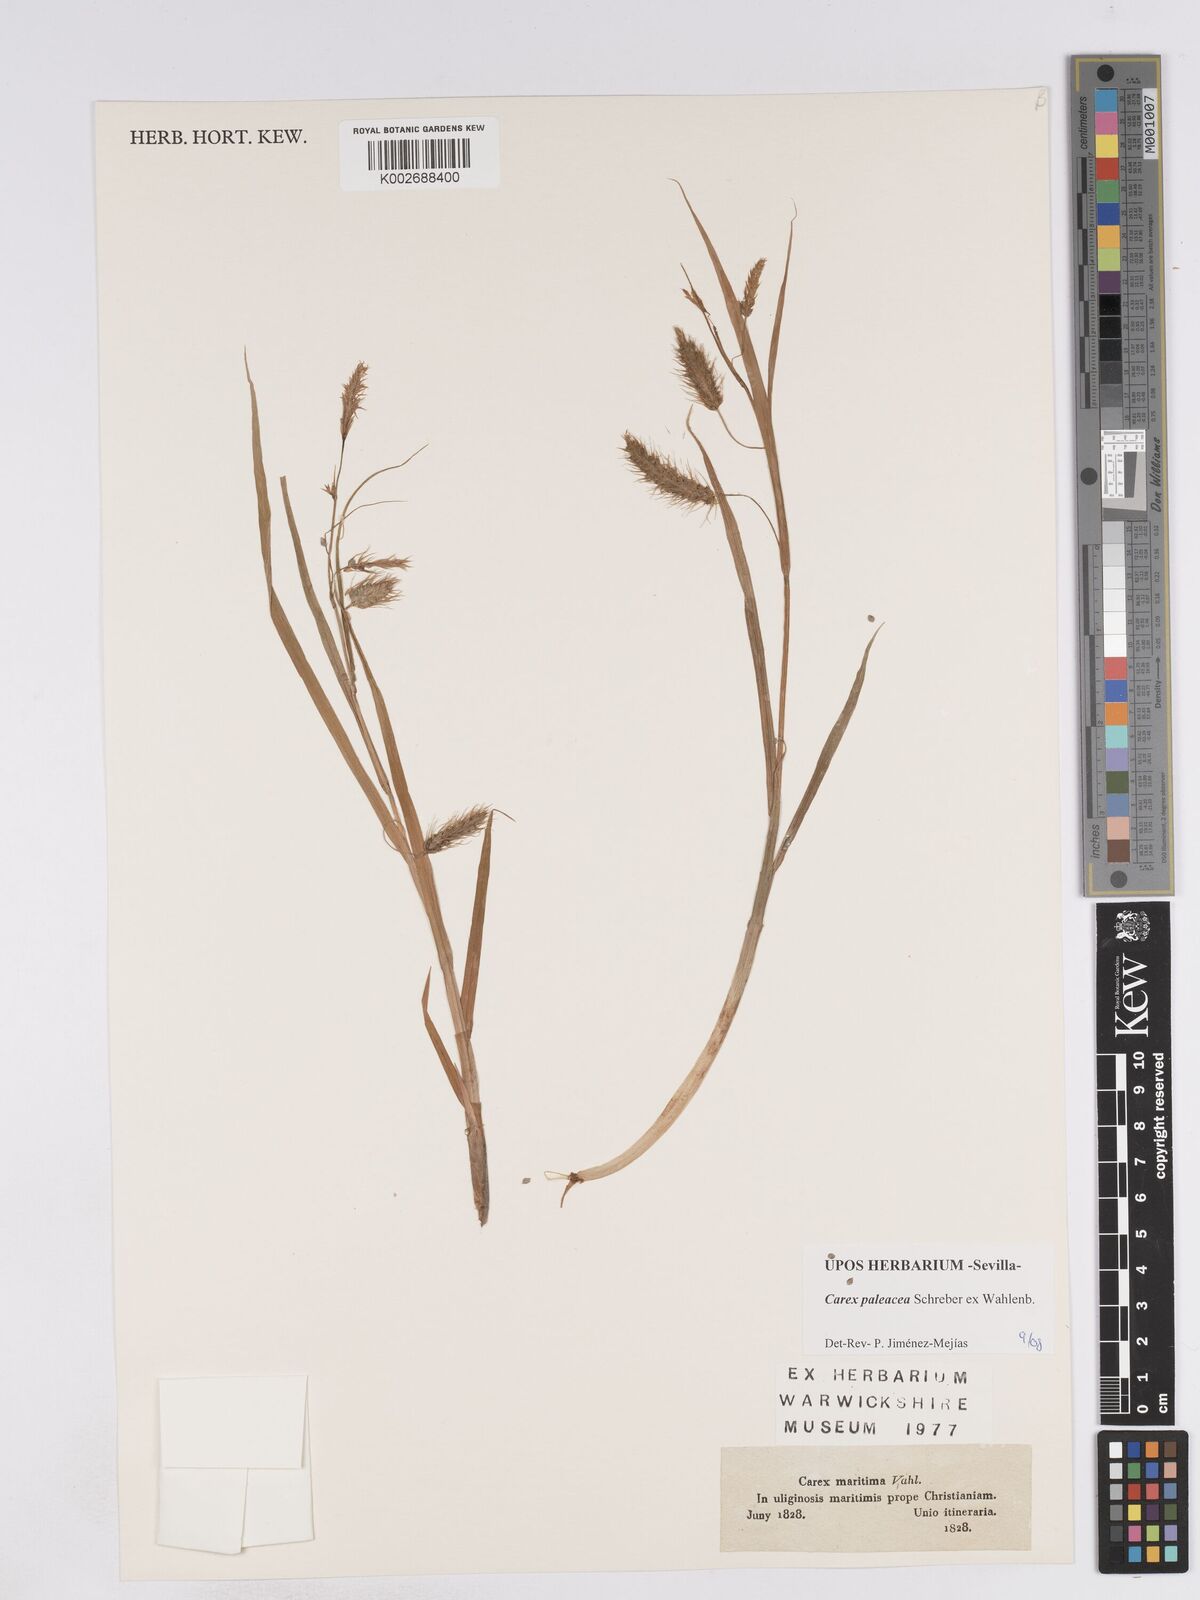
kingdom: Plantae
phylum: Tracheophyta
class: Liliopsida
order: Poales
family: Cyperaceae
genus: Carex
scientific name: Carex paleacea
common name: Chaffy sedge
